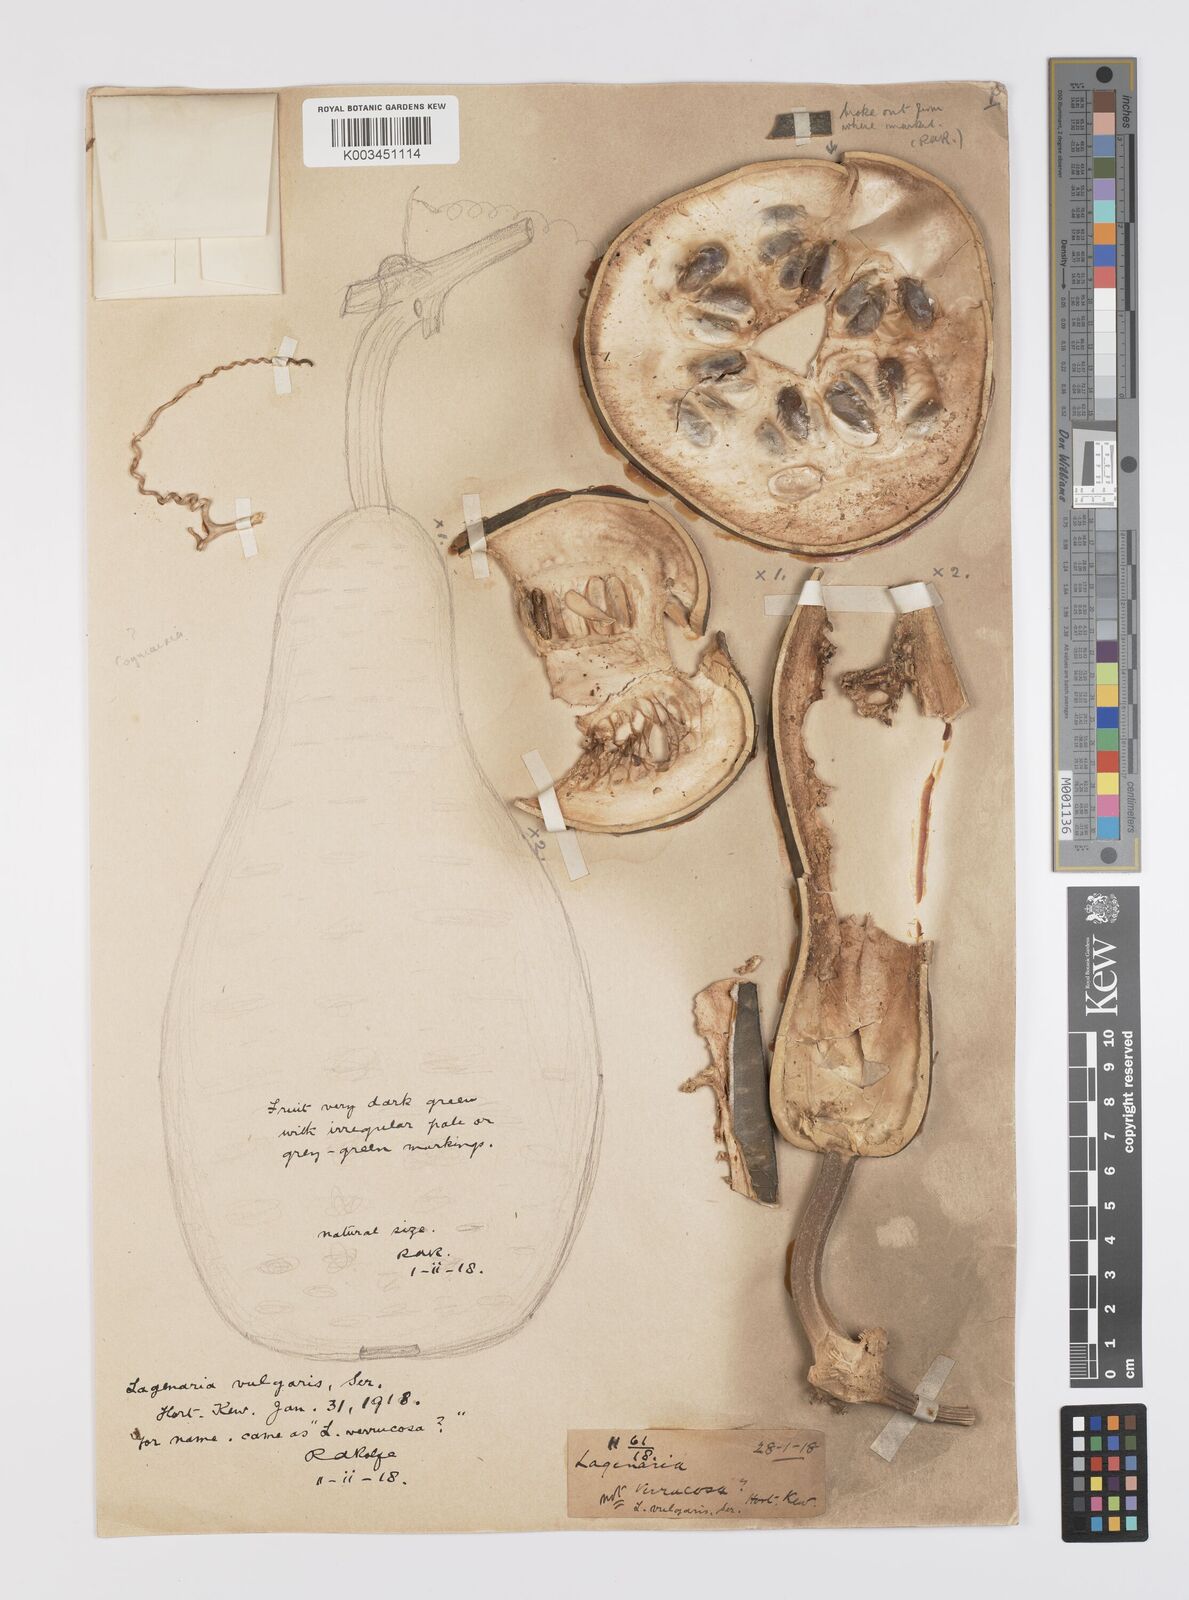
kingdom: Plantae
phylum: Tracheophyta
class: Magnoliopsida
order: Cucurbitales
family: Cucurbitaceae
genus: Lagenaria
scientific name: Lagenaria siceraria
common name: Bottle gourd
